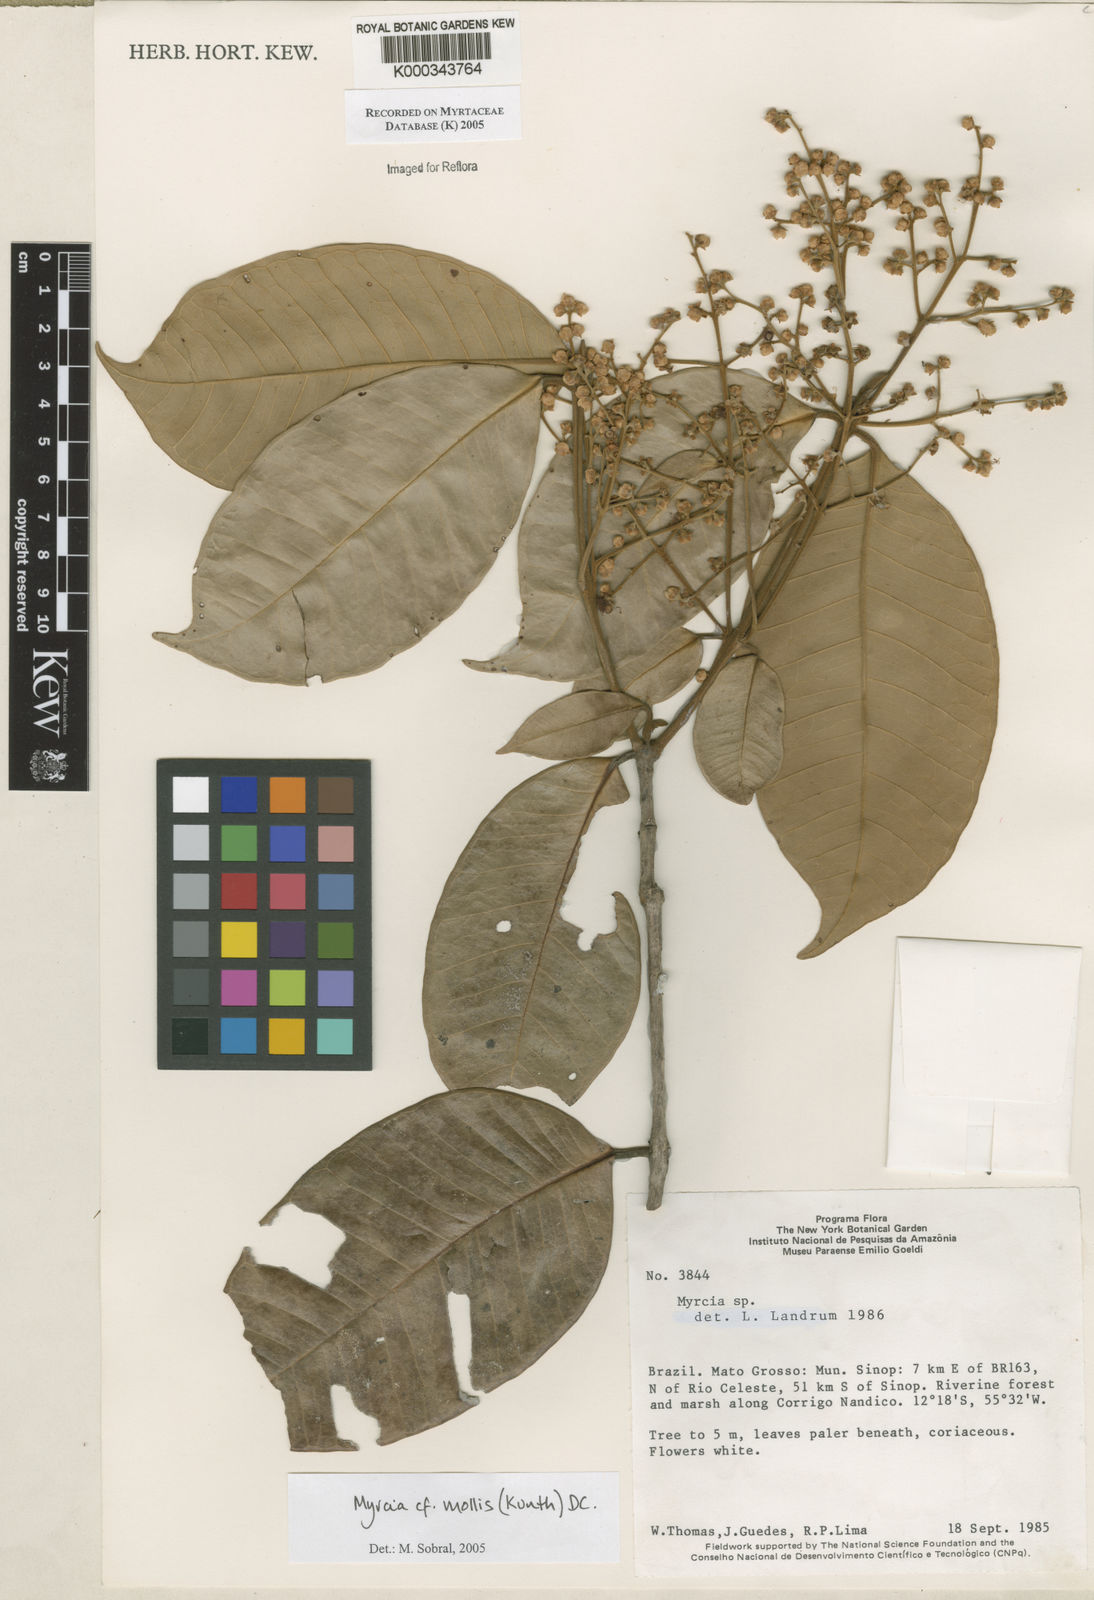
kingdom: Plantae
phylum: Tracheophyta
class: Magnoliopsida
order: Myrtales
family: Myrtaceae
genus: Myrcia
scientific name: Myrcia mollis
